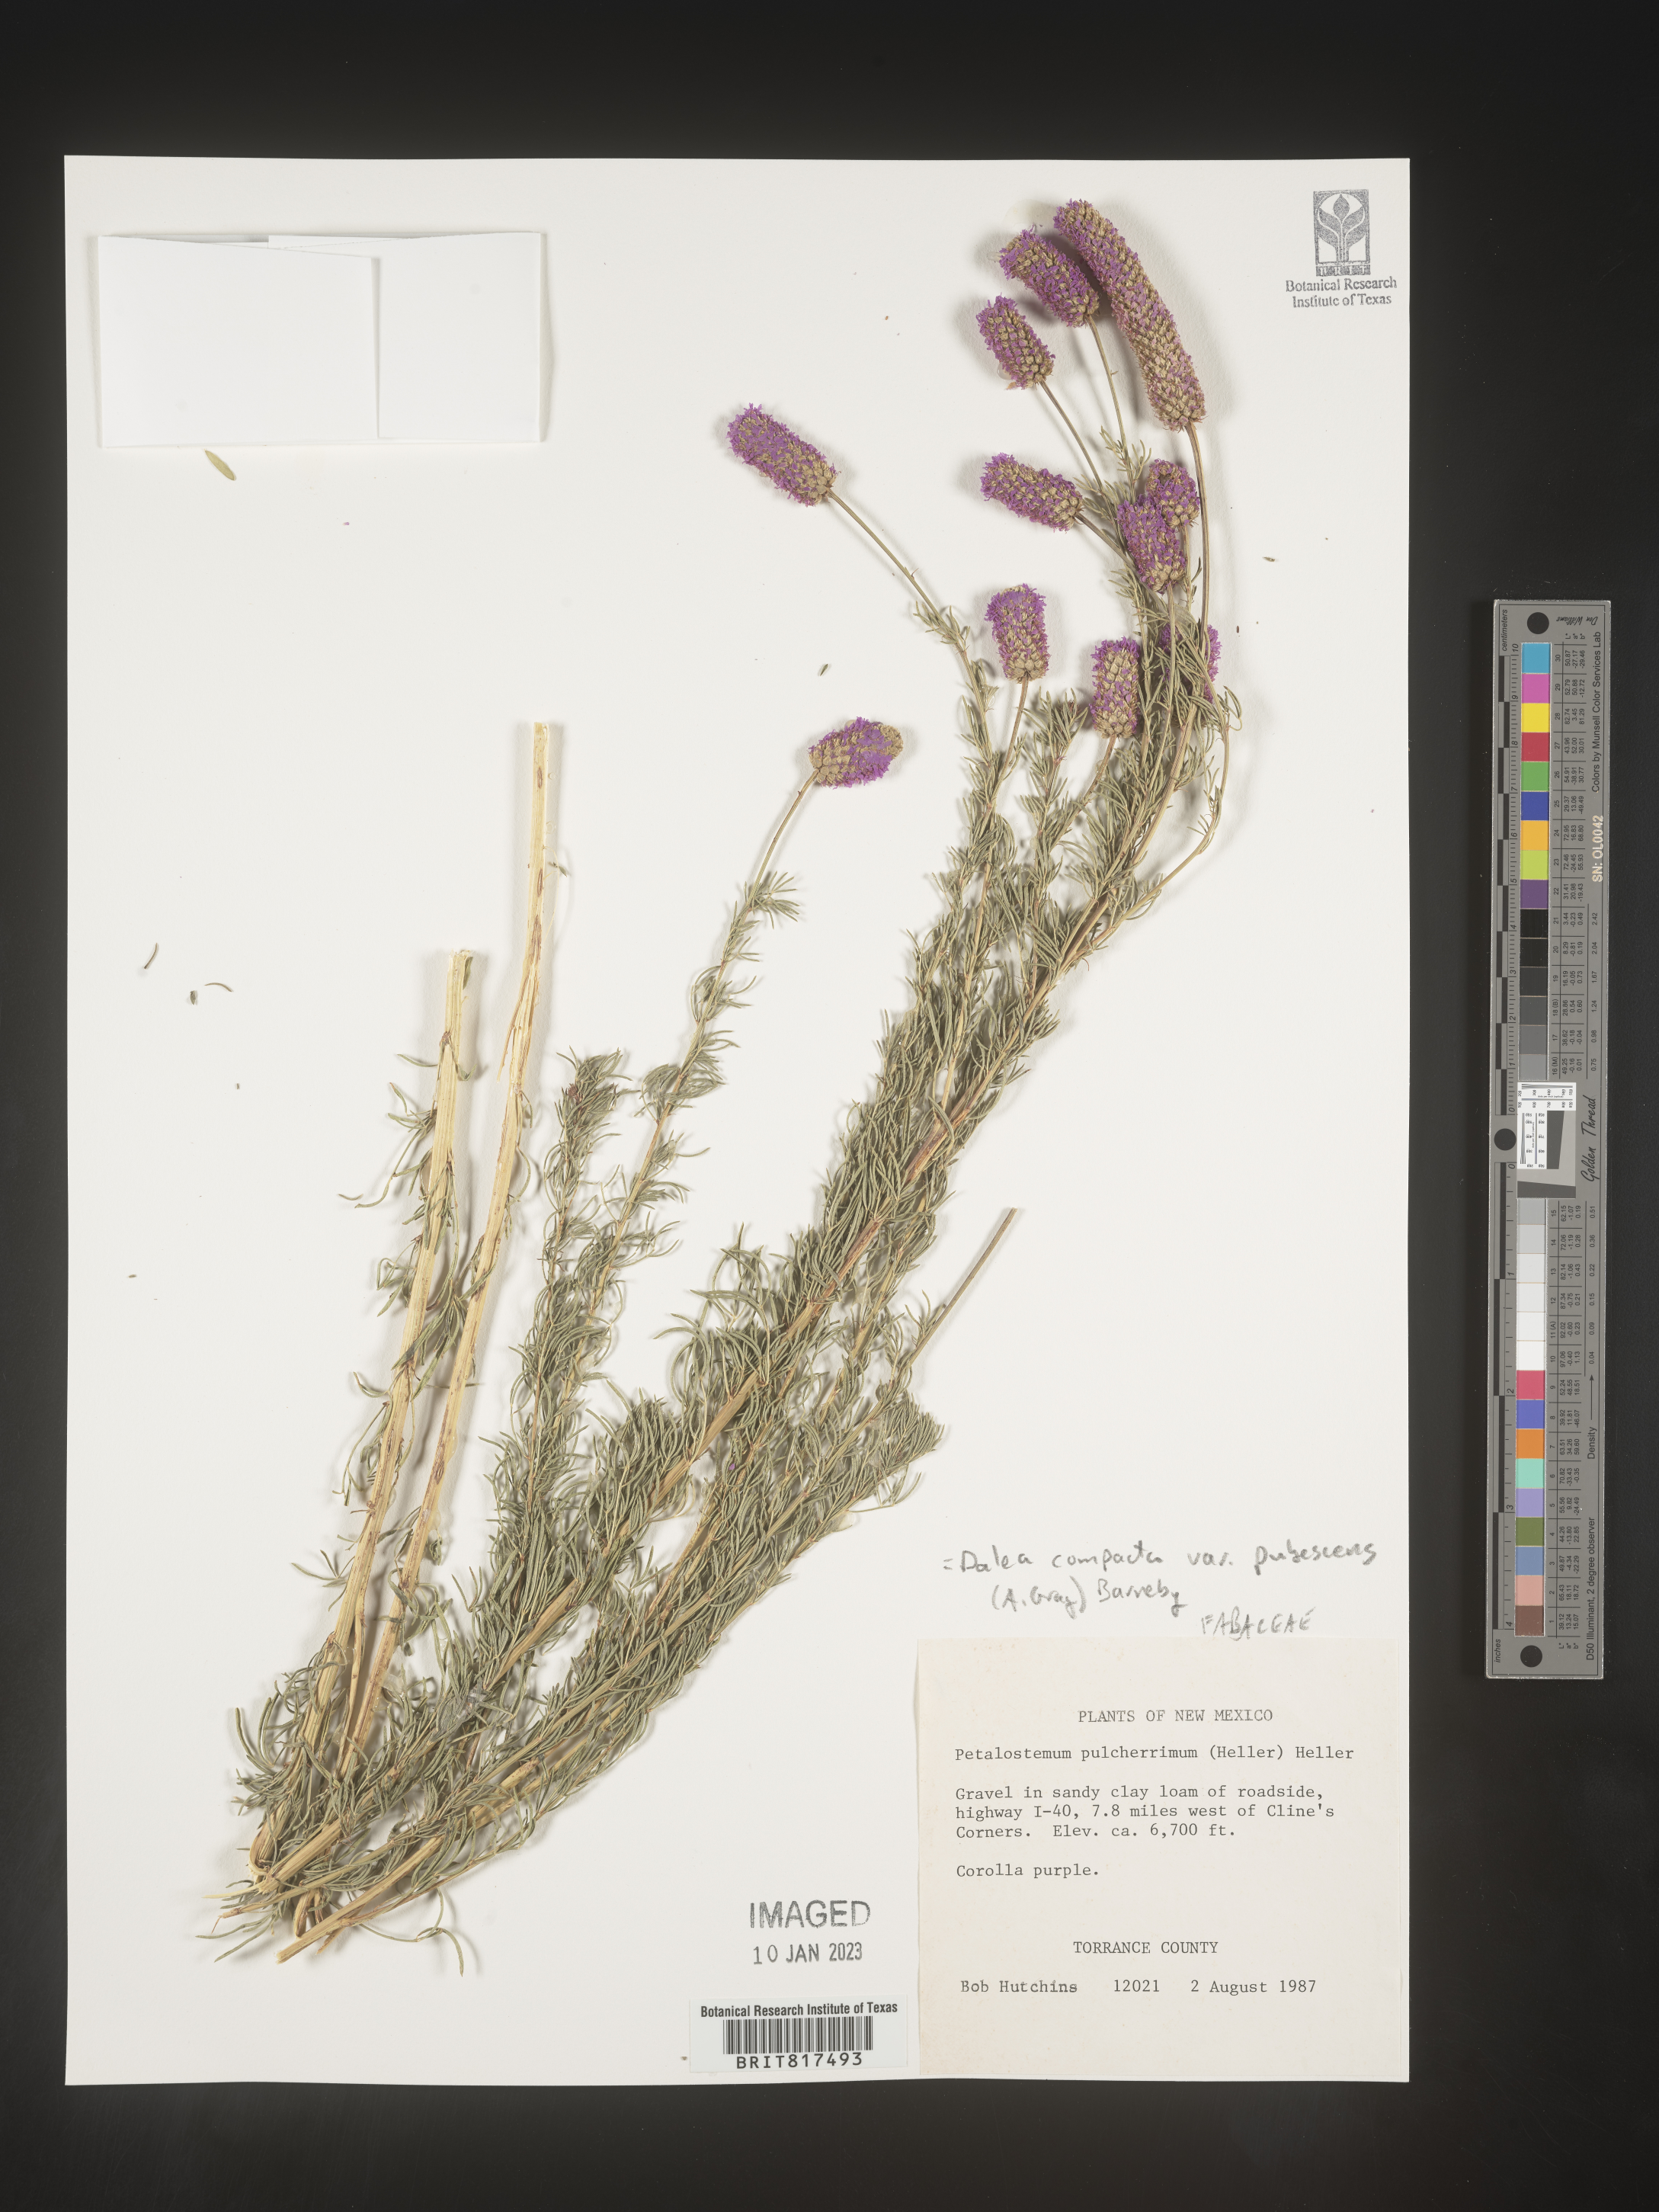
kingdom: Plantae
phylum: Tracheophyta
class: Magnoliopsida
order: Fabales
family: Fabaceae
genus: Dalea
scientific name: Dalea compacta
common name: Compact prairie-clover
